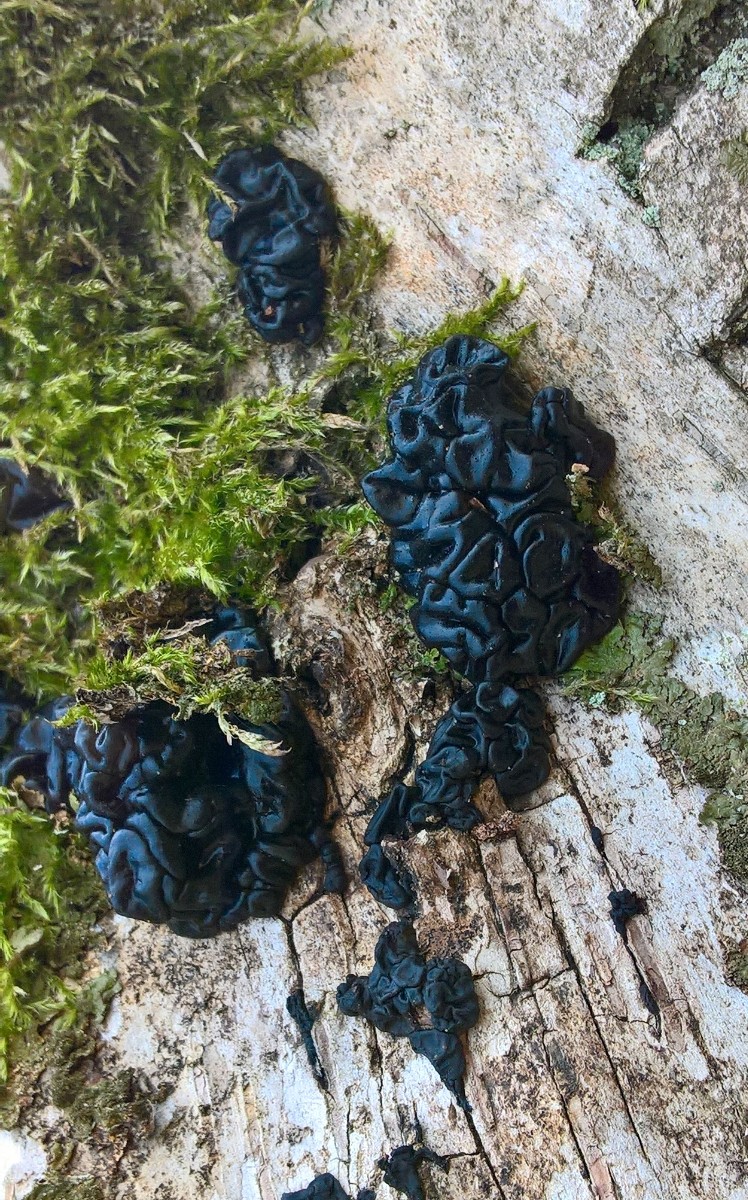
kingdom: Fungi
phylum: Basidiomycota
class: Agaricomycetes
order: Auriculariales
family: Auriculariaceae
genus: Exidia
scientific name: Exidia nigricans
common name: almindelig bævretop
